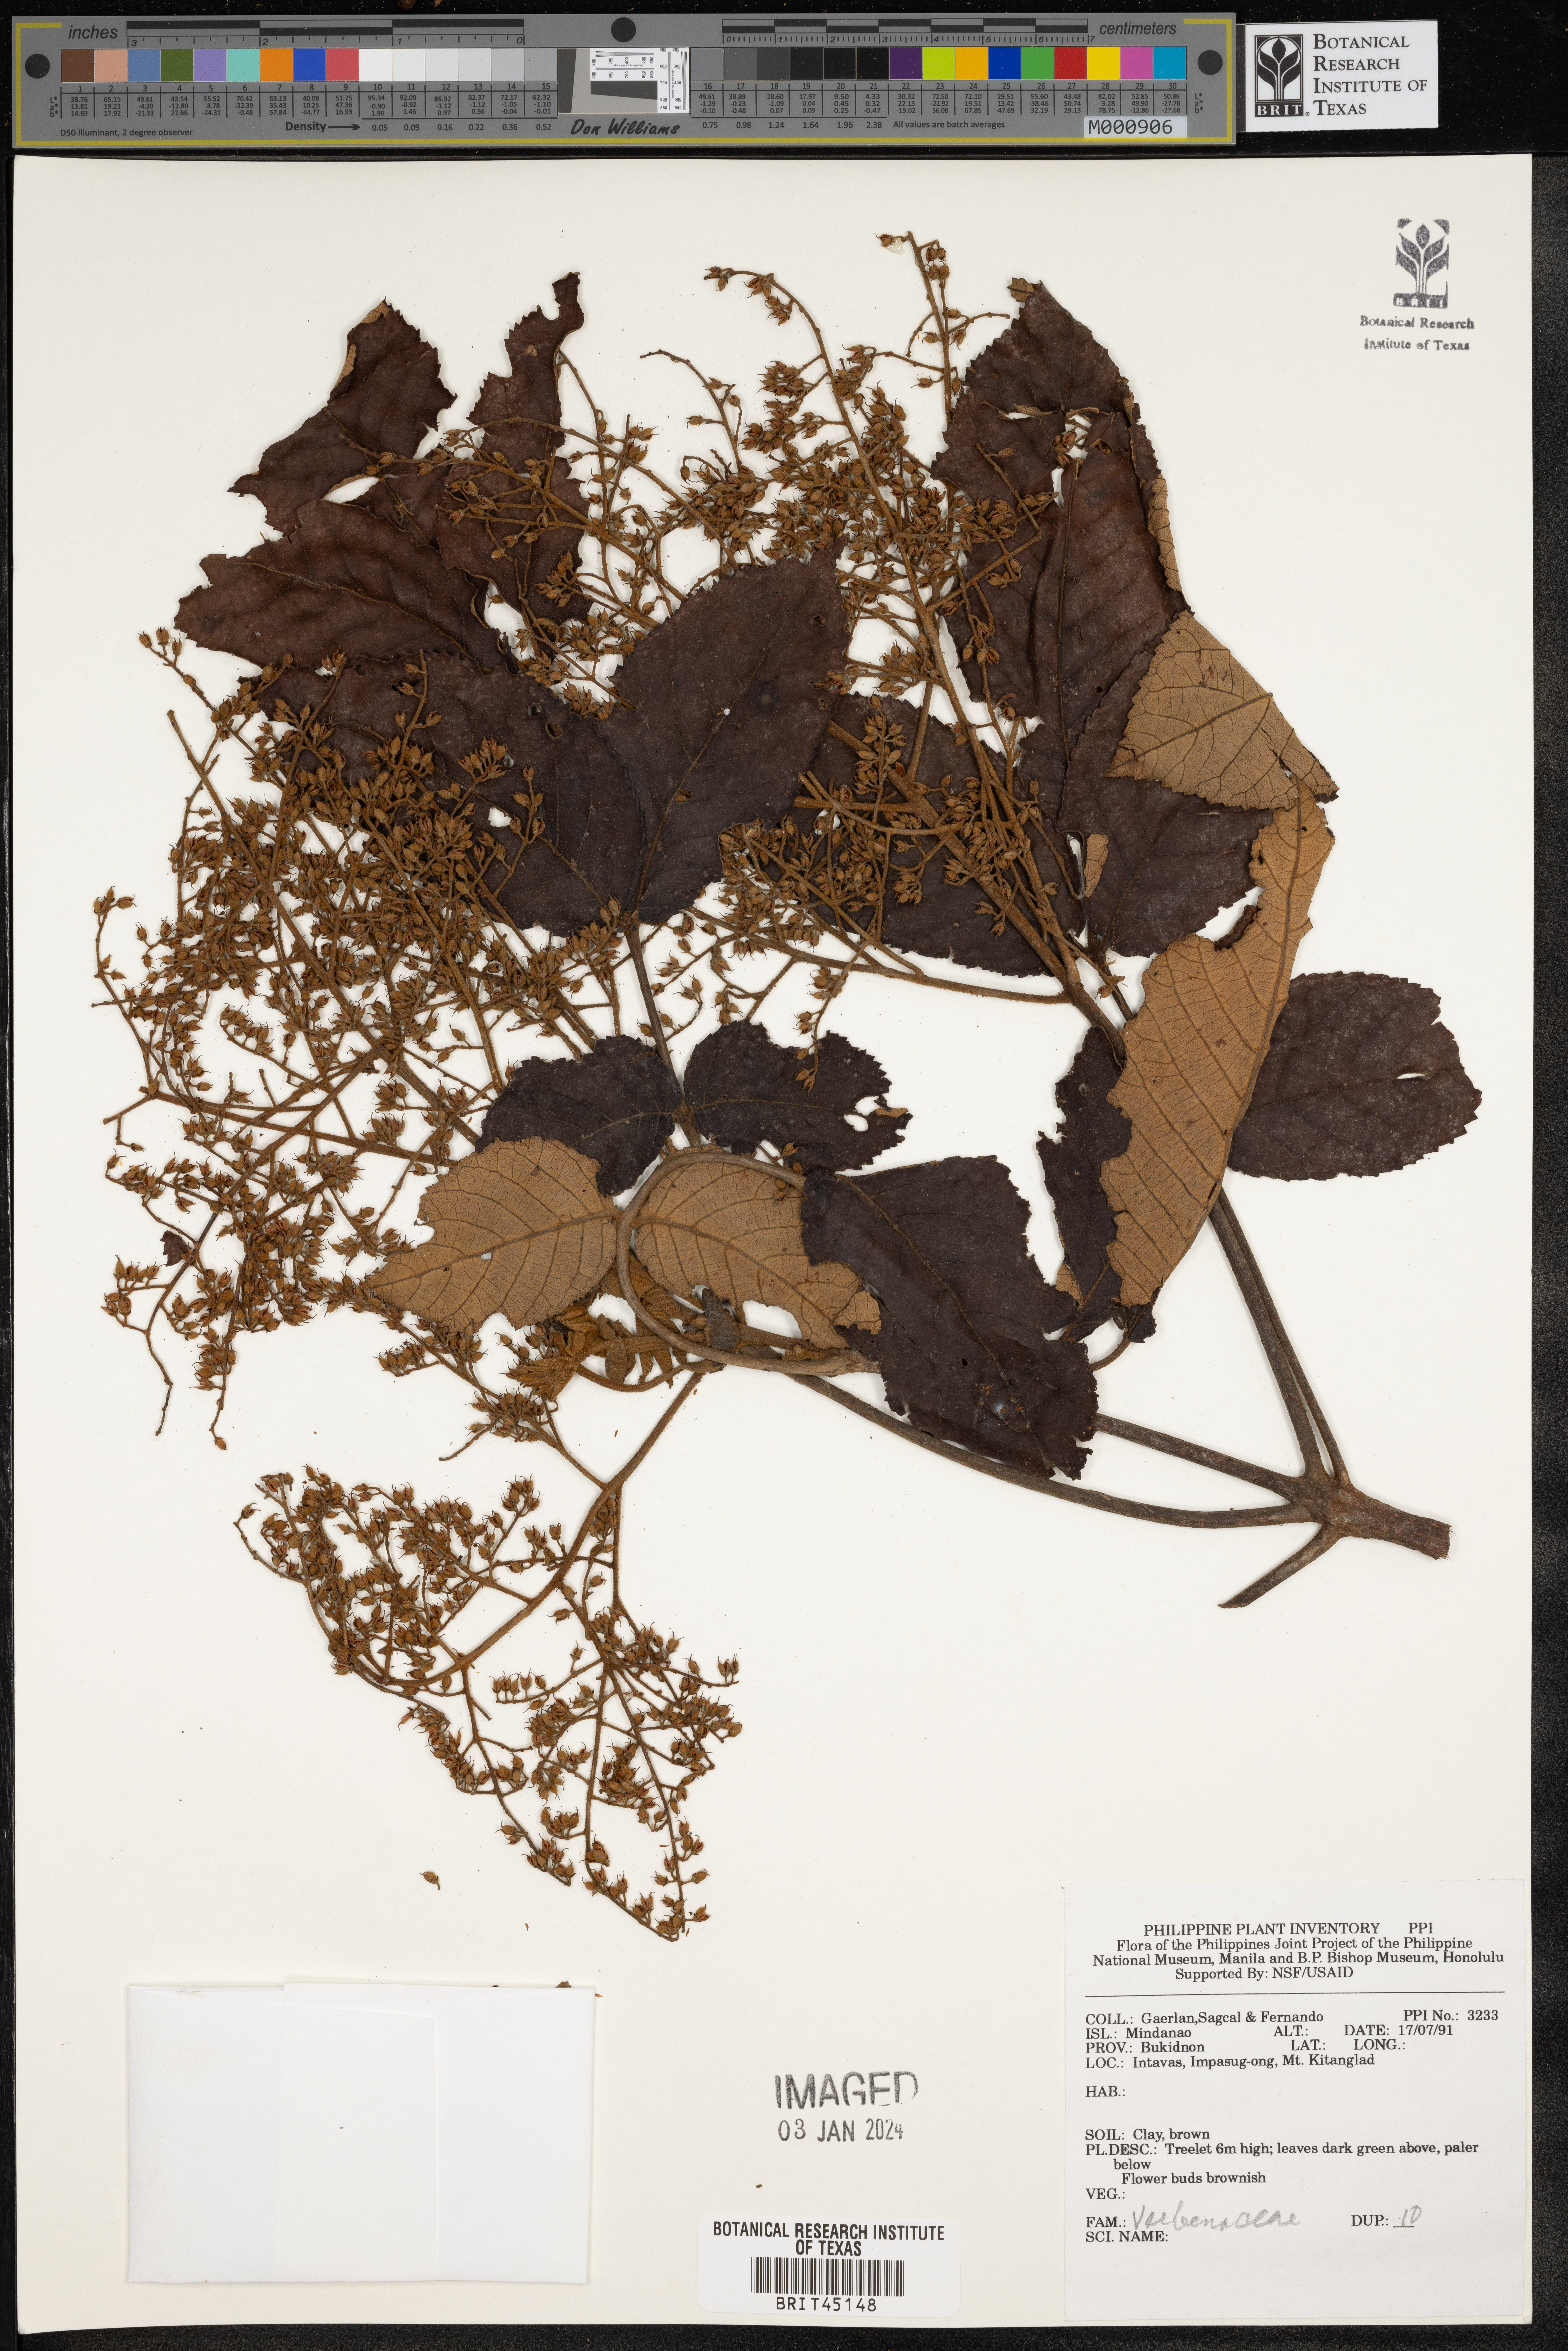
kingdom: Plantae
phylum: Tracheophyta
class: Magnoliopsida
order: Lamiales
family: Verbenaceae
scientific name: Verbenaceae
